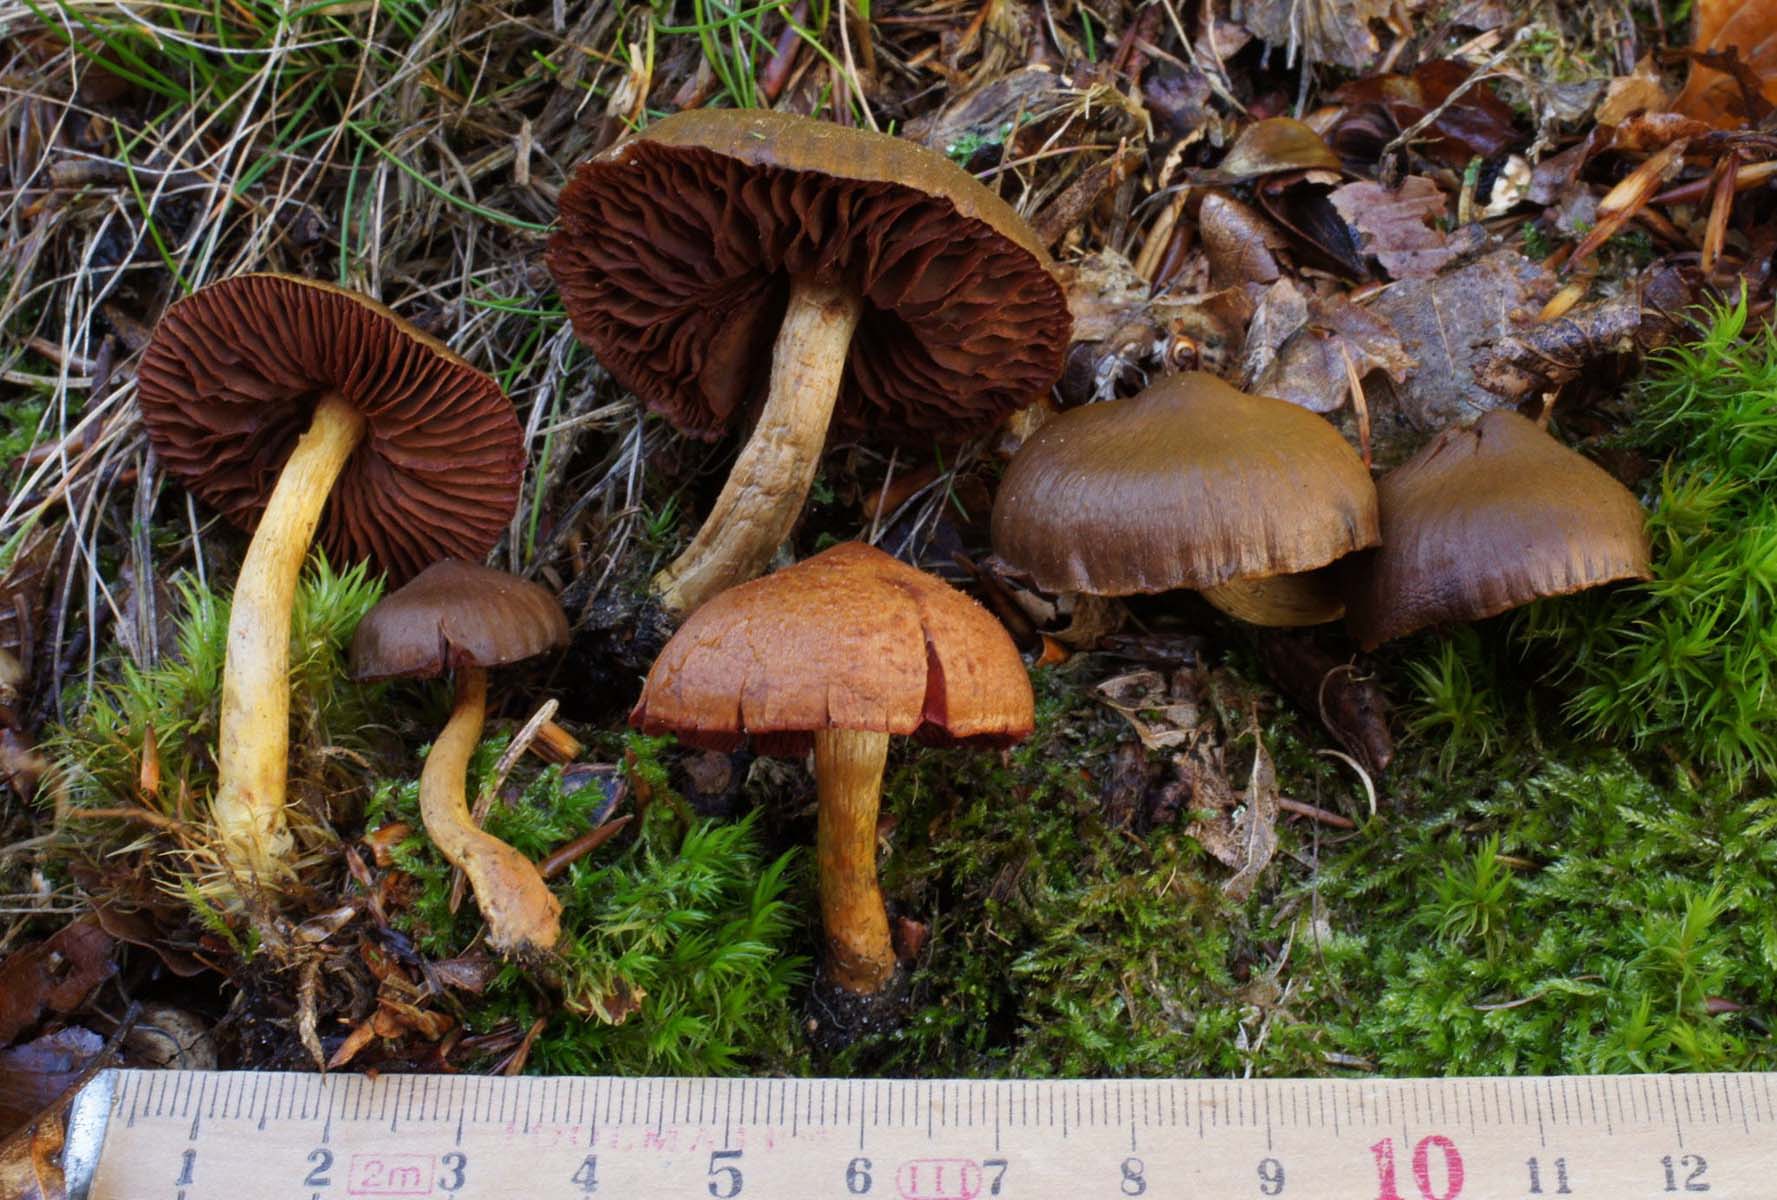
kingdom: Fungi
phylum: Basidiomycota
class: Agaricomycetes
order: Agaricales
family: Cortinariaceae
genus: Cortinarius
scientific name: Cortinarius
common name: cinnoberbladet slørhat
